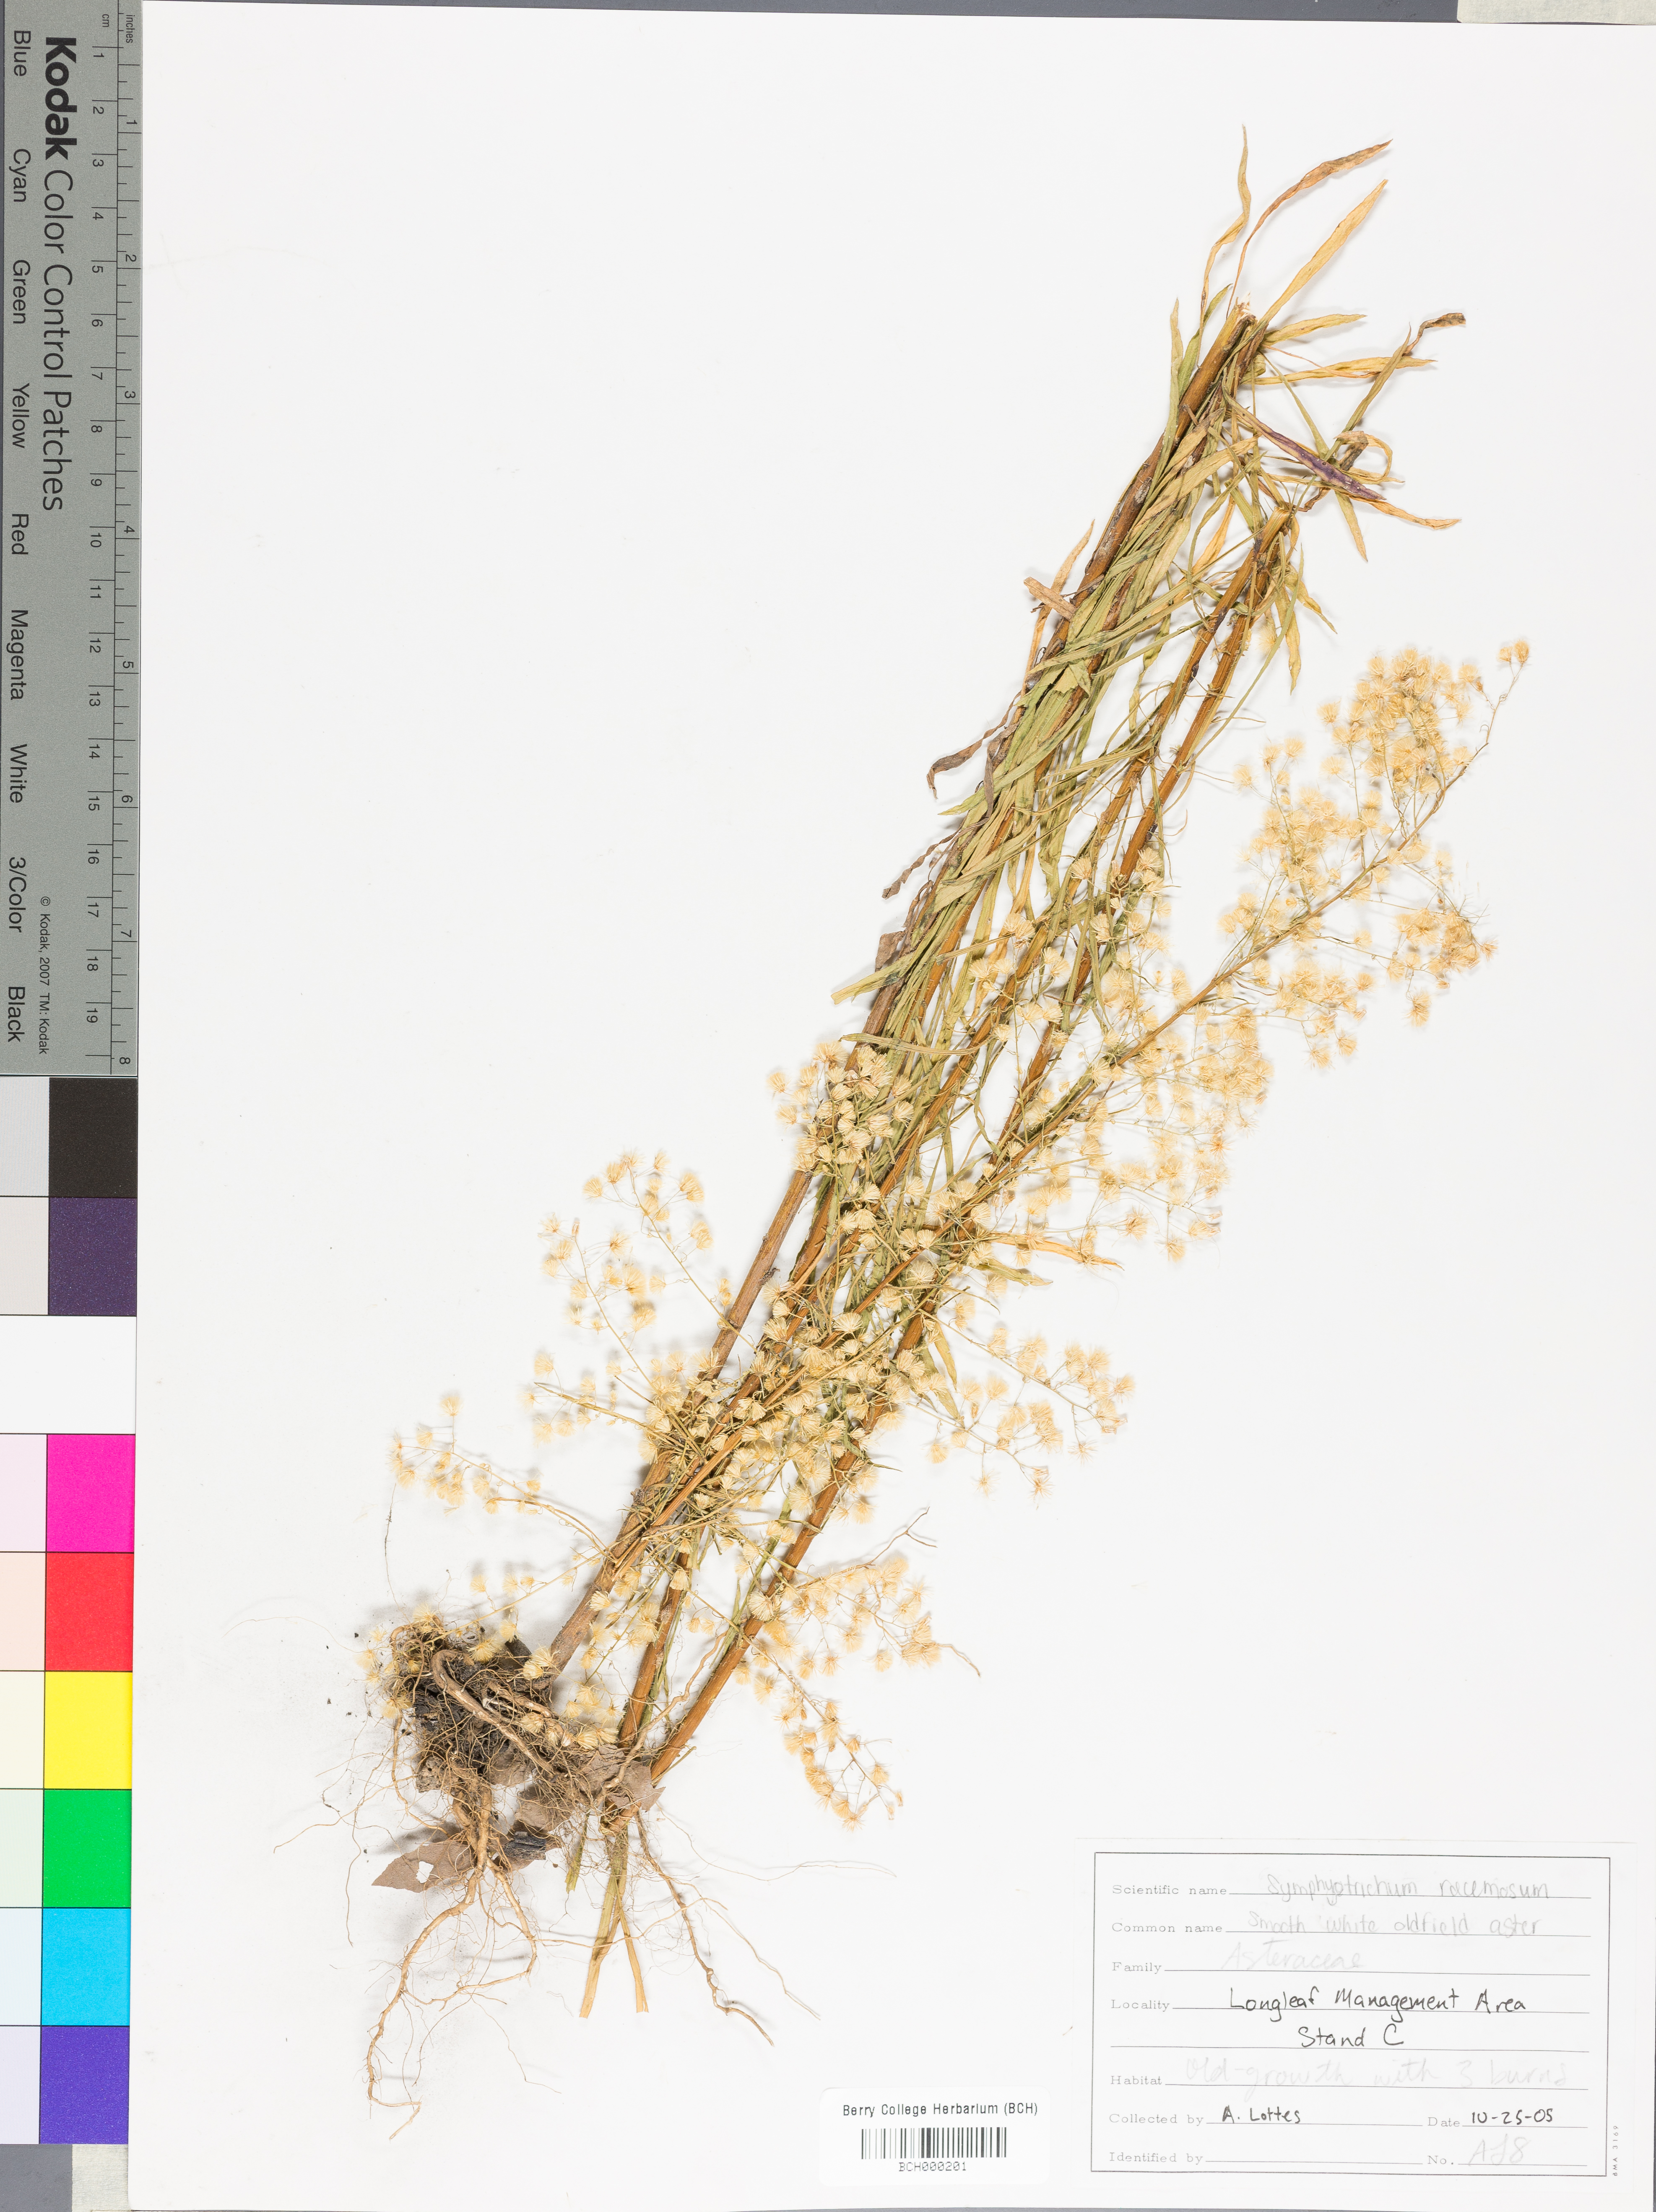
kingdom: Plantae
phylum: Tracheophyta
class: Magnoliopsida
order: Asterales
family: Asteraceae
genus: Symphyotrichum
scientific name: Symphyotrichum racemosum
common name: Small white aster
